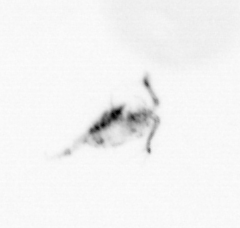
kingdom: Animalia
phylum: Arthropoda
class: Copepoda
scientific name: Copepoda
